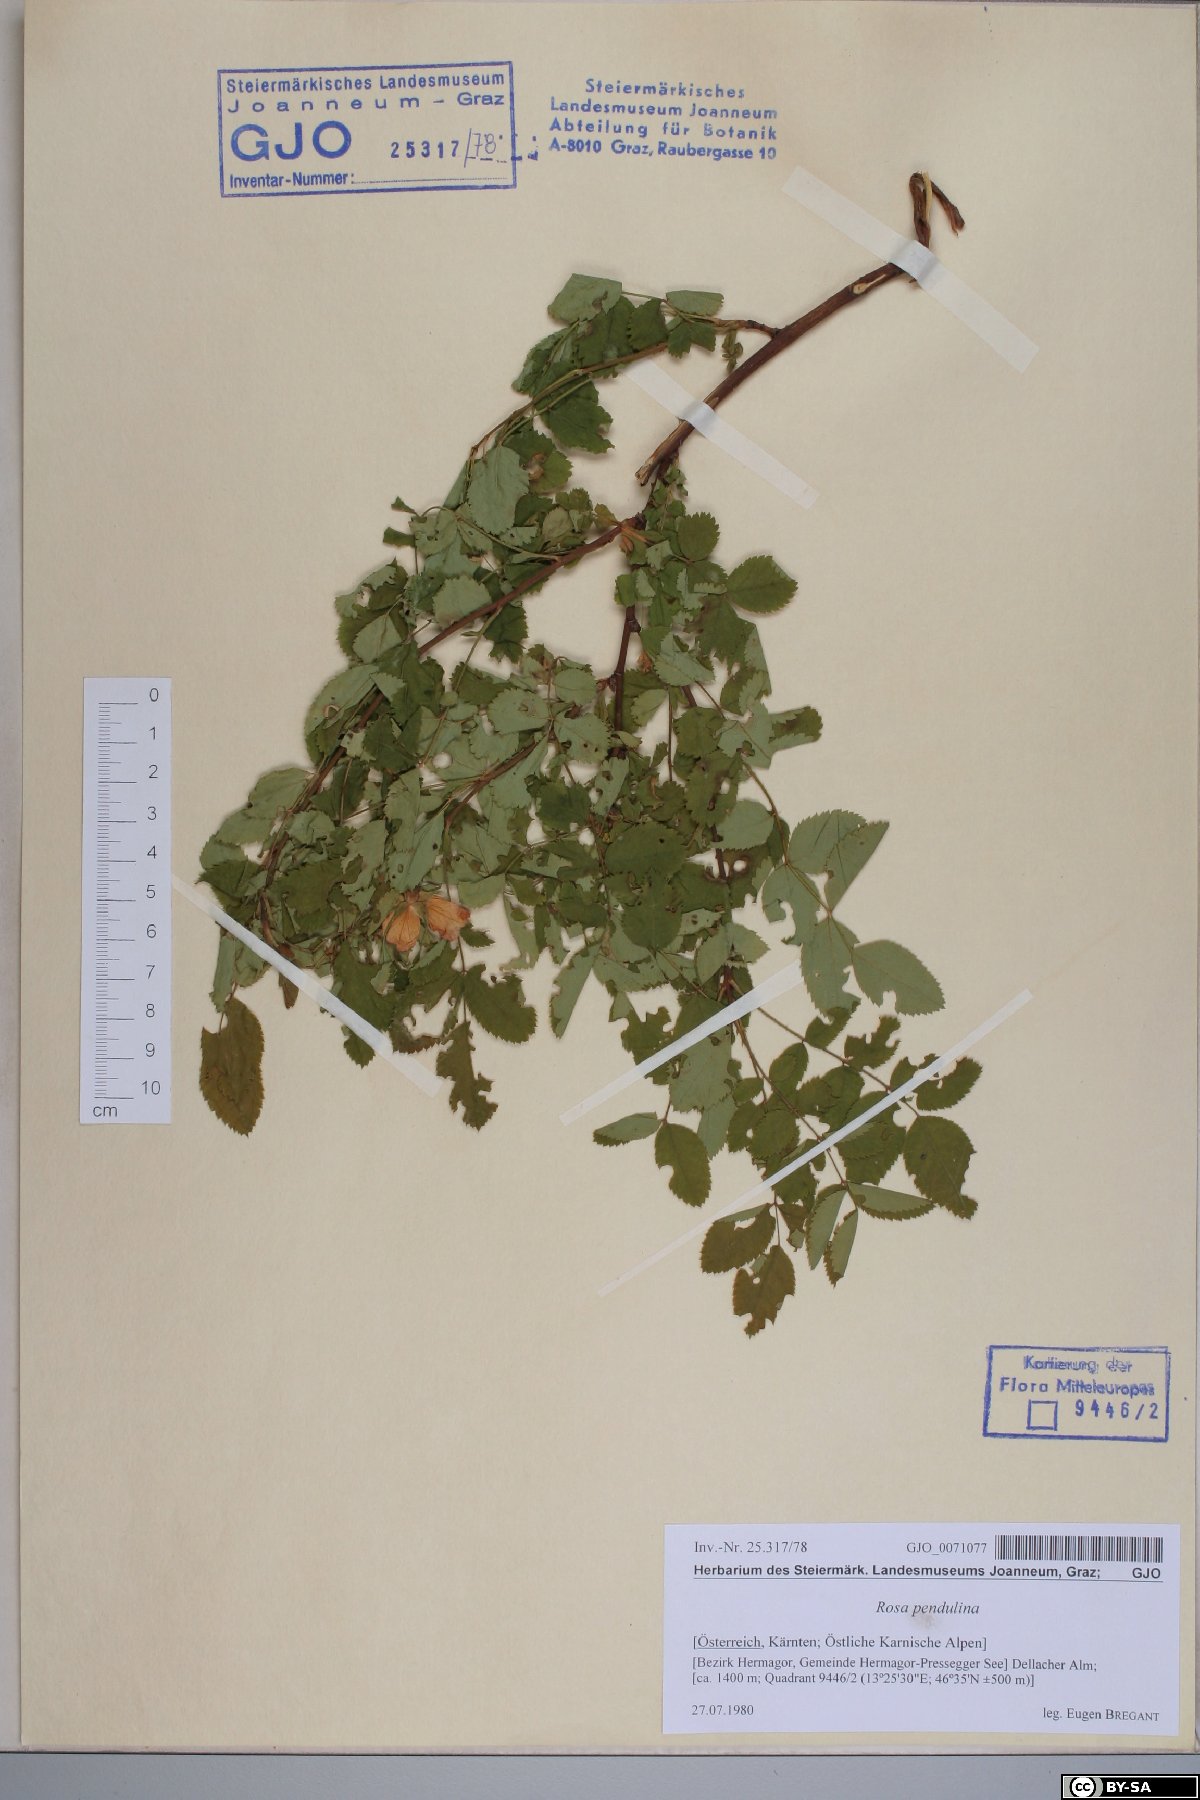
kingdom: Plantae
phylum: Tracheophyta
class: Magnoliopsida
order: Rosales
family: Rosaceae
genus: Rosa
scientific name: Rosa pendulina
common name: Alpine rose
